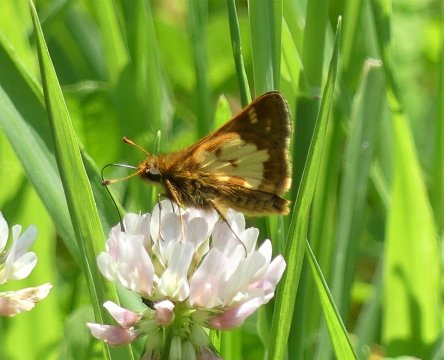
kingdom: Animalia
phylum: Arthropoda
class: Insecta
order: Lepidoptera
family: Hesperiidae
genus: Polites
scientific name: Polites coras
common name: Peck's Skipper
